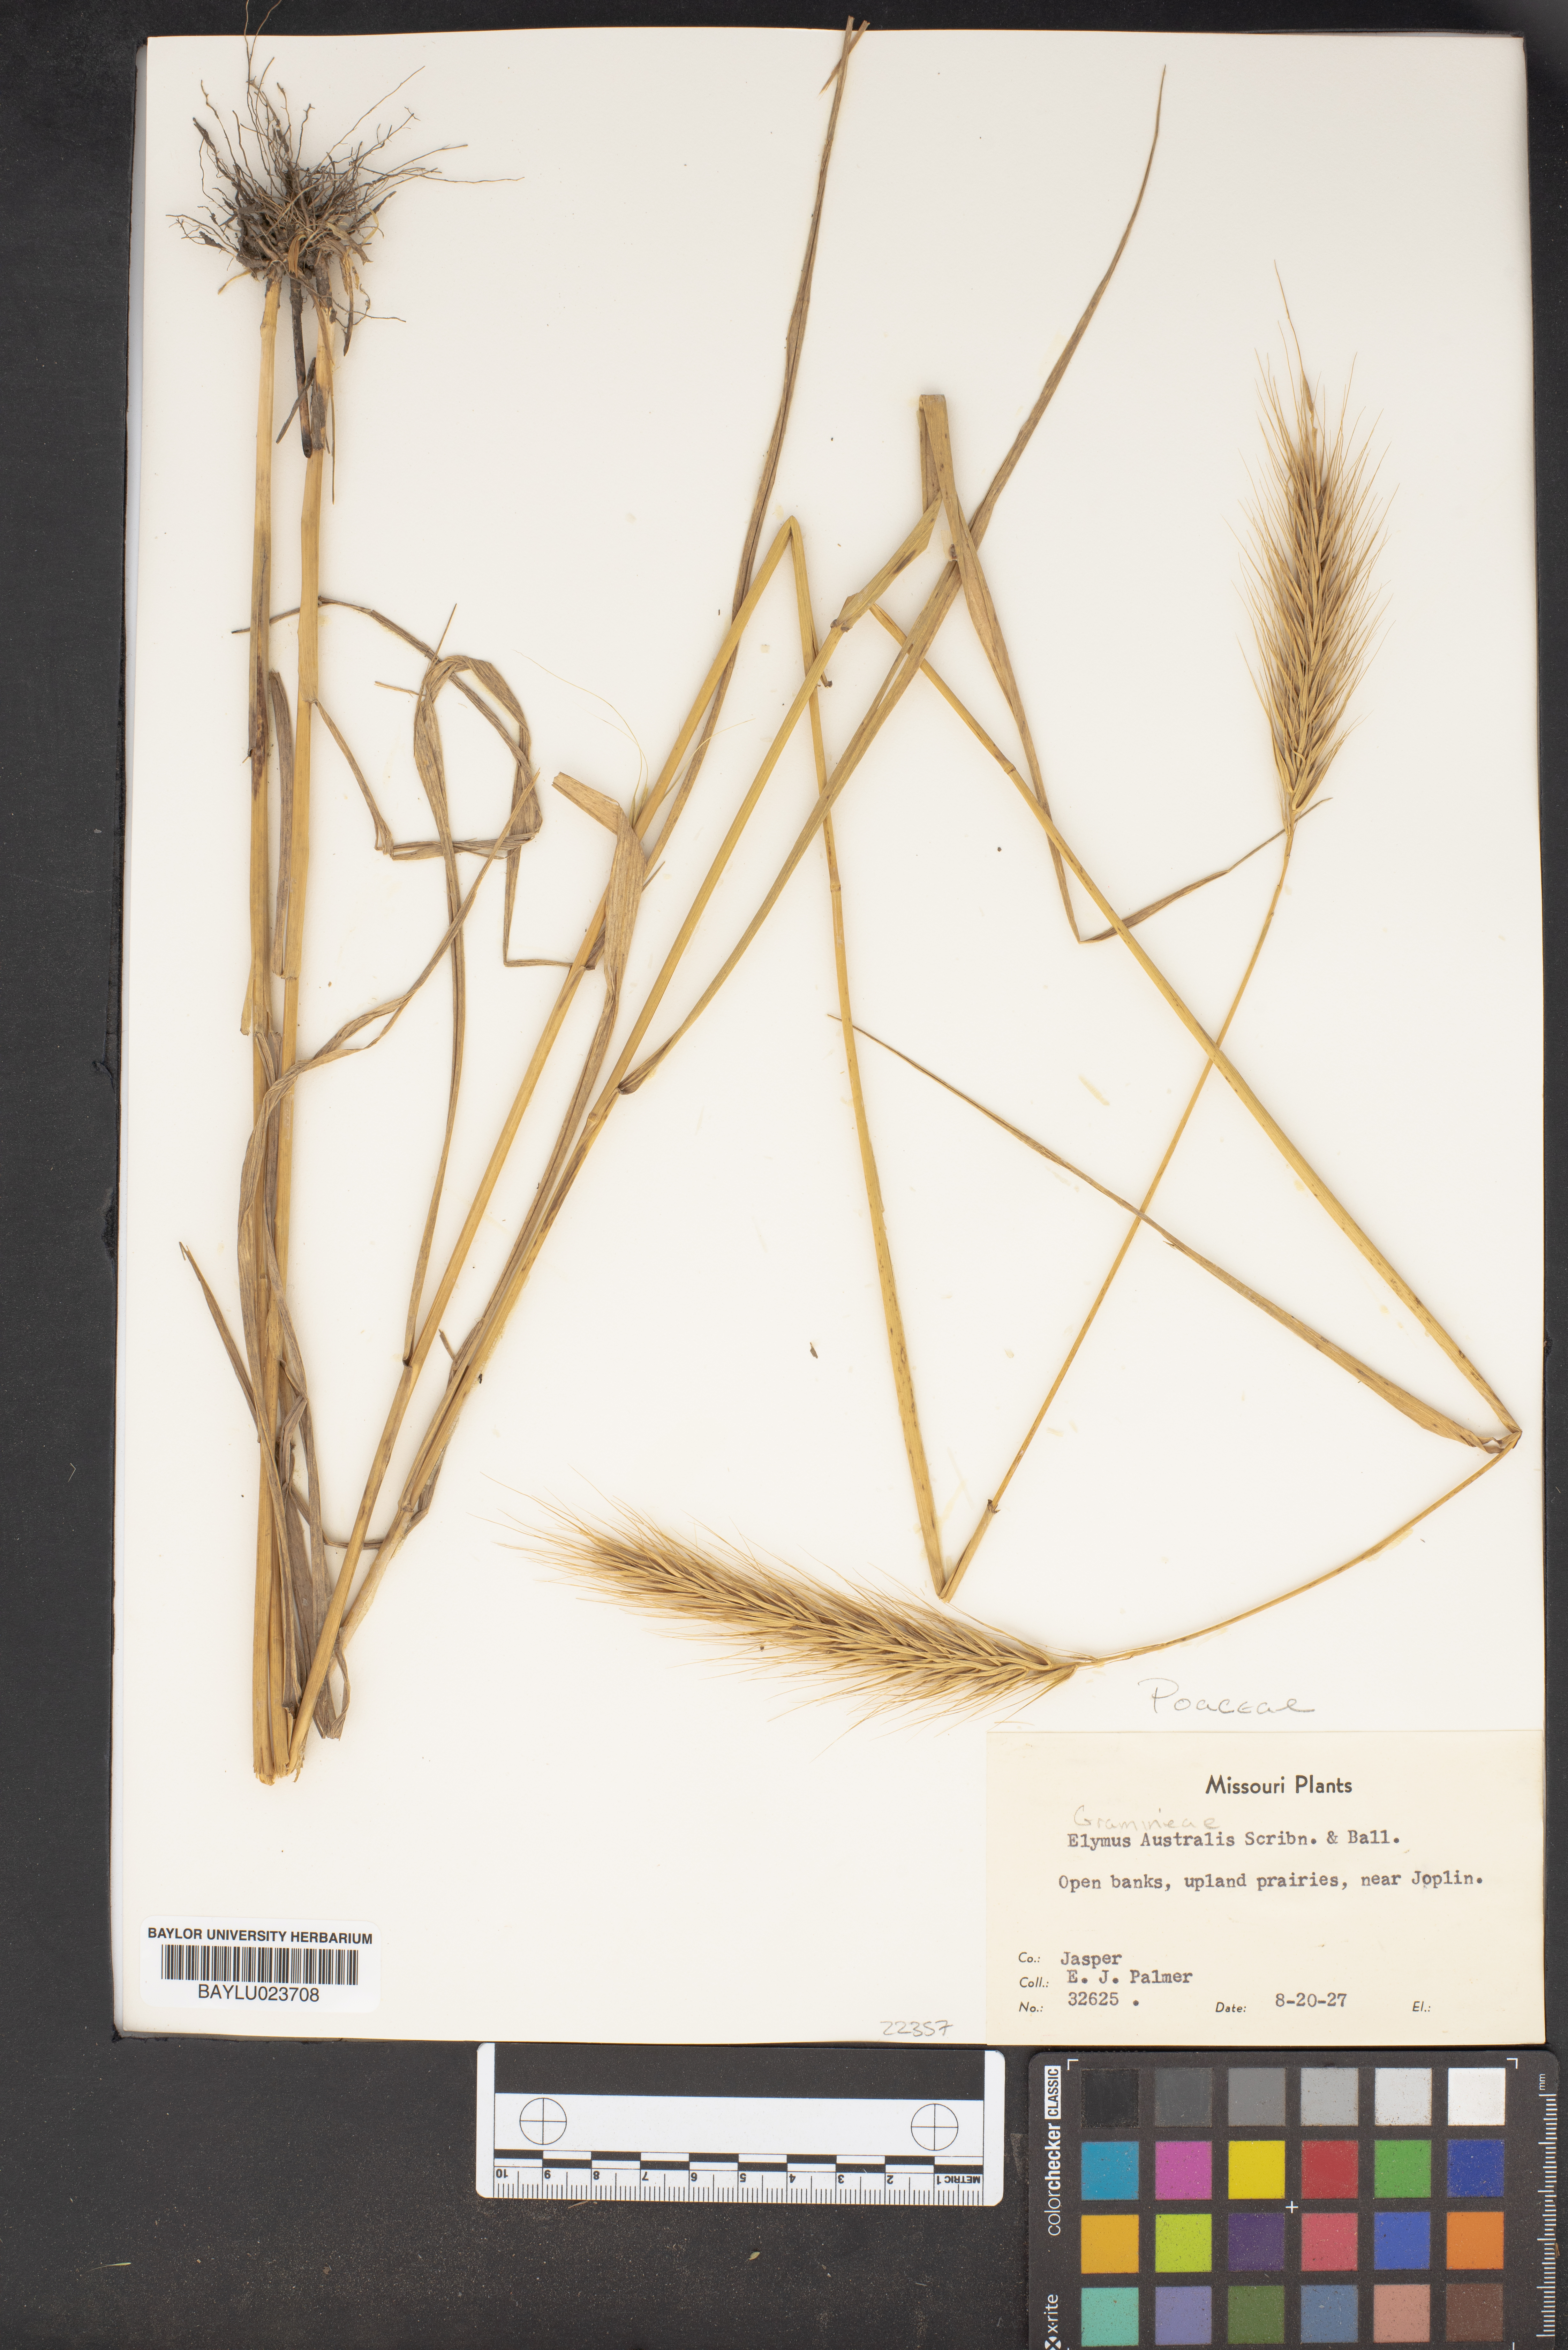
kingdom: Plantae
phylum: Tracheophyta
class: Liliopsida
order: Poales
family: Poaceae
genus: Elymus
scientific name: Elymus virginicus
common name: Common eastern wildrye
